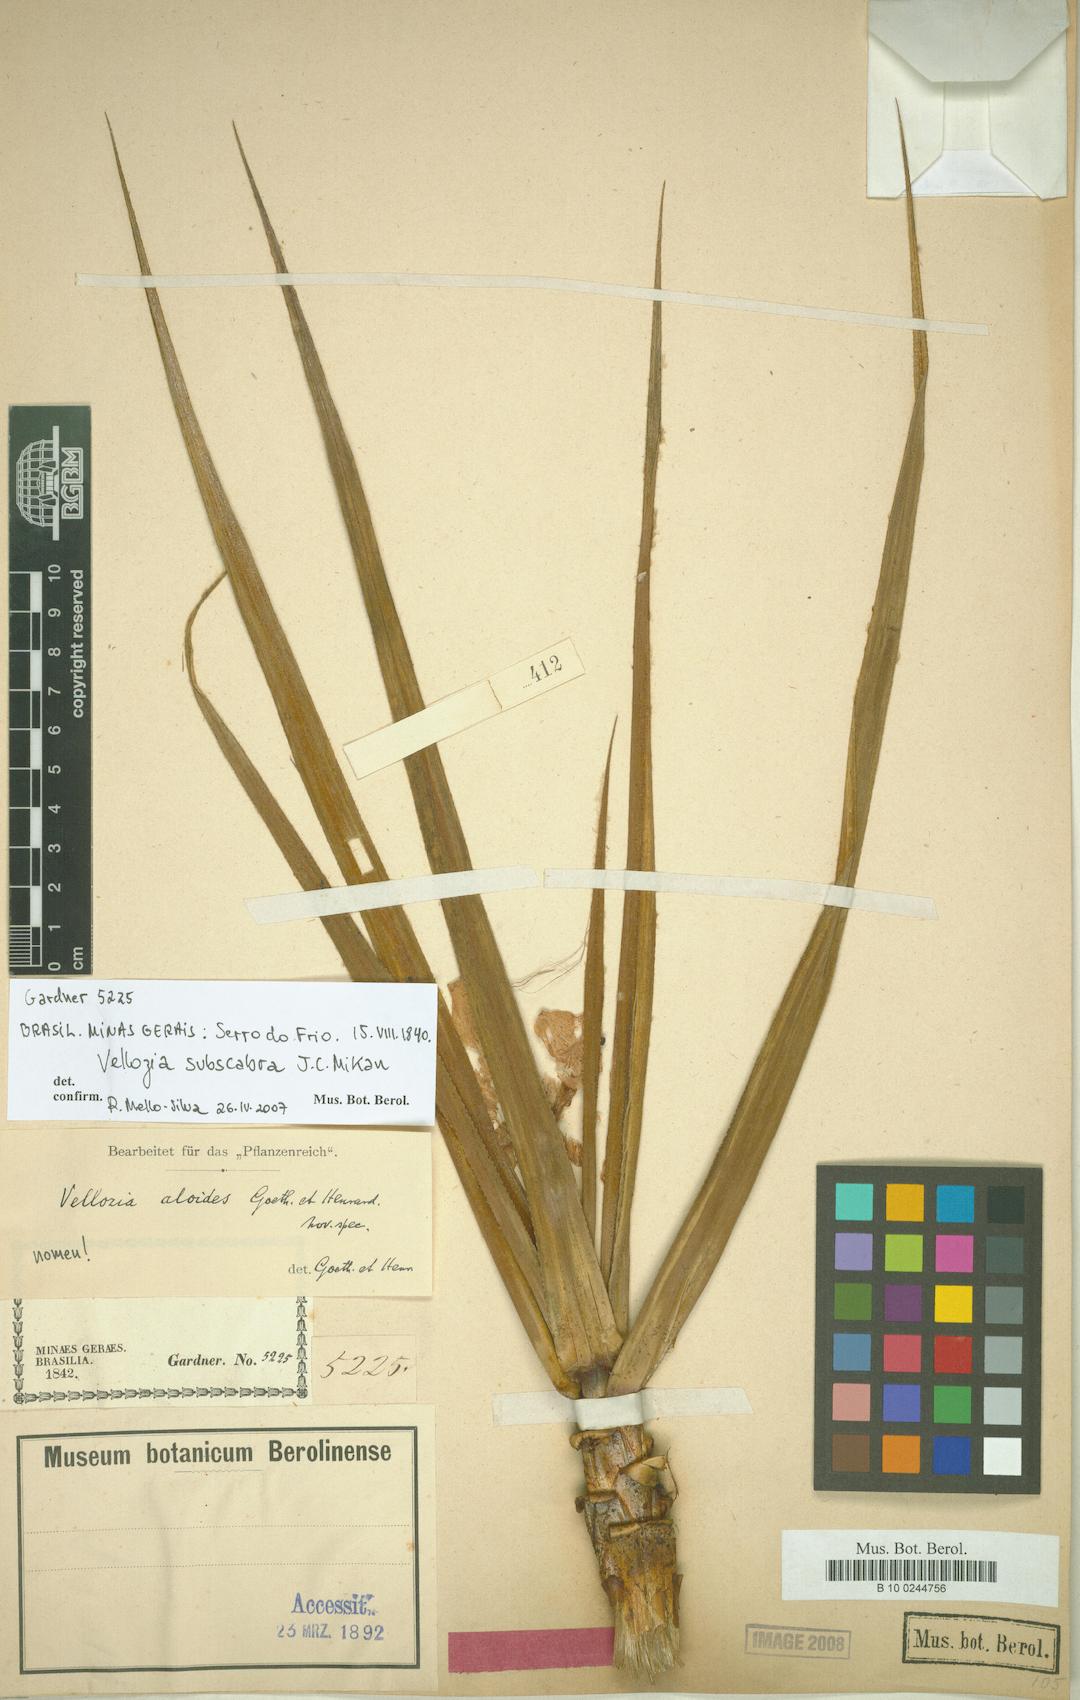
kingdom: Plantae
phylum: Tracheophyta
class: Liliopsida
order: Pandanales
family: Velloziaceae
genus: Vellozia
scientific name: Vellozia subscabra
